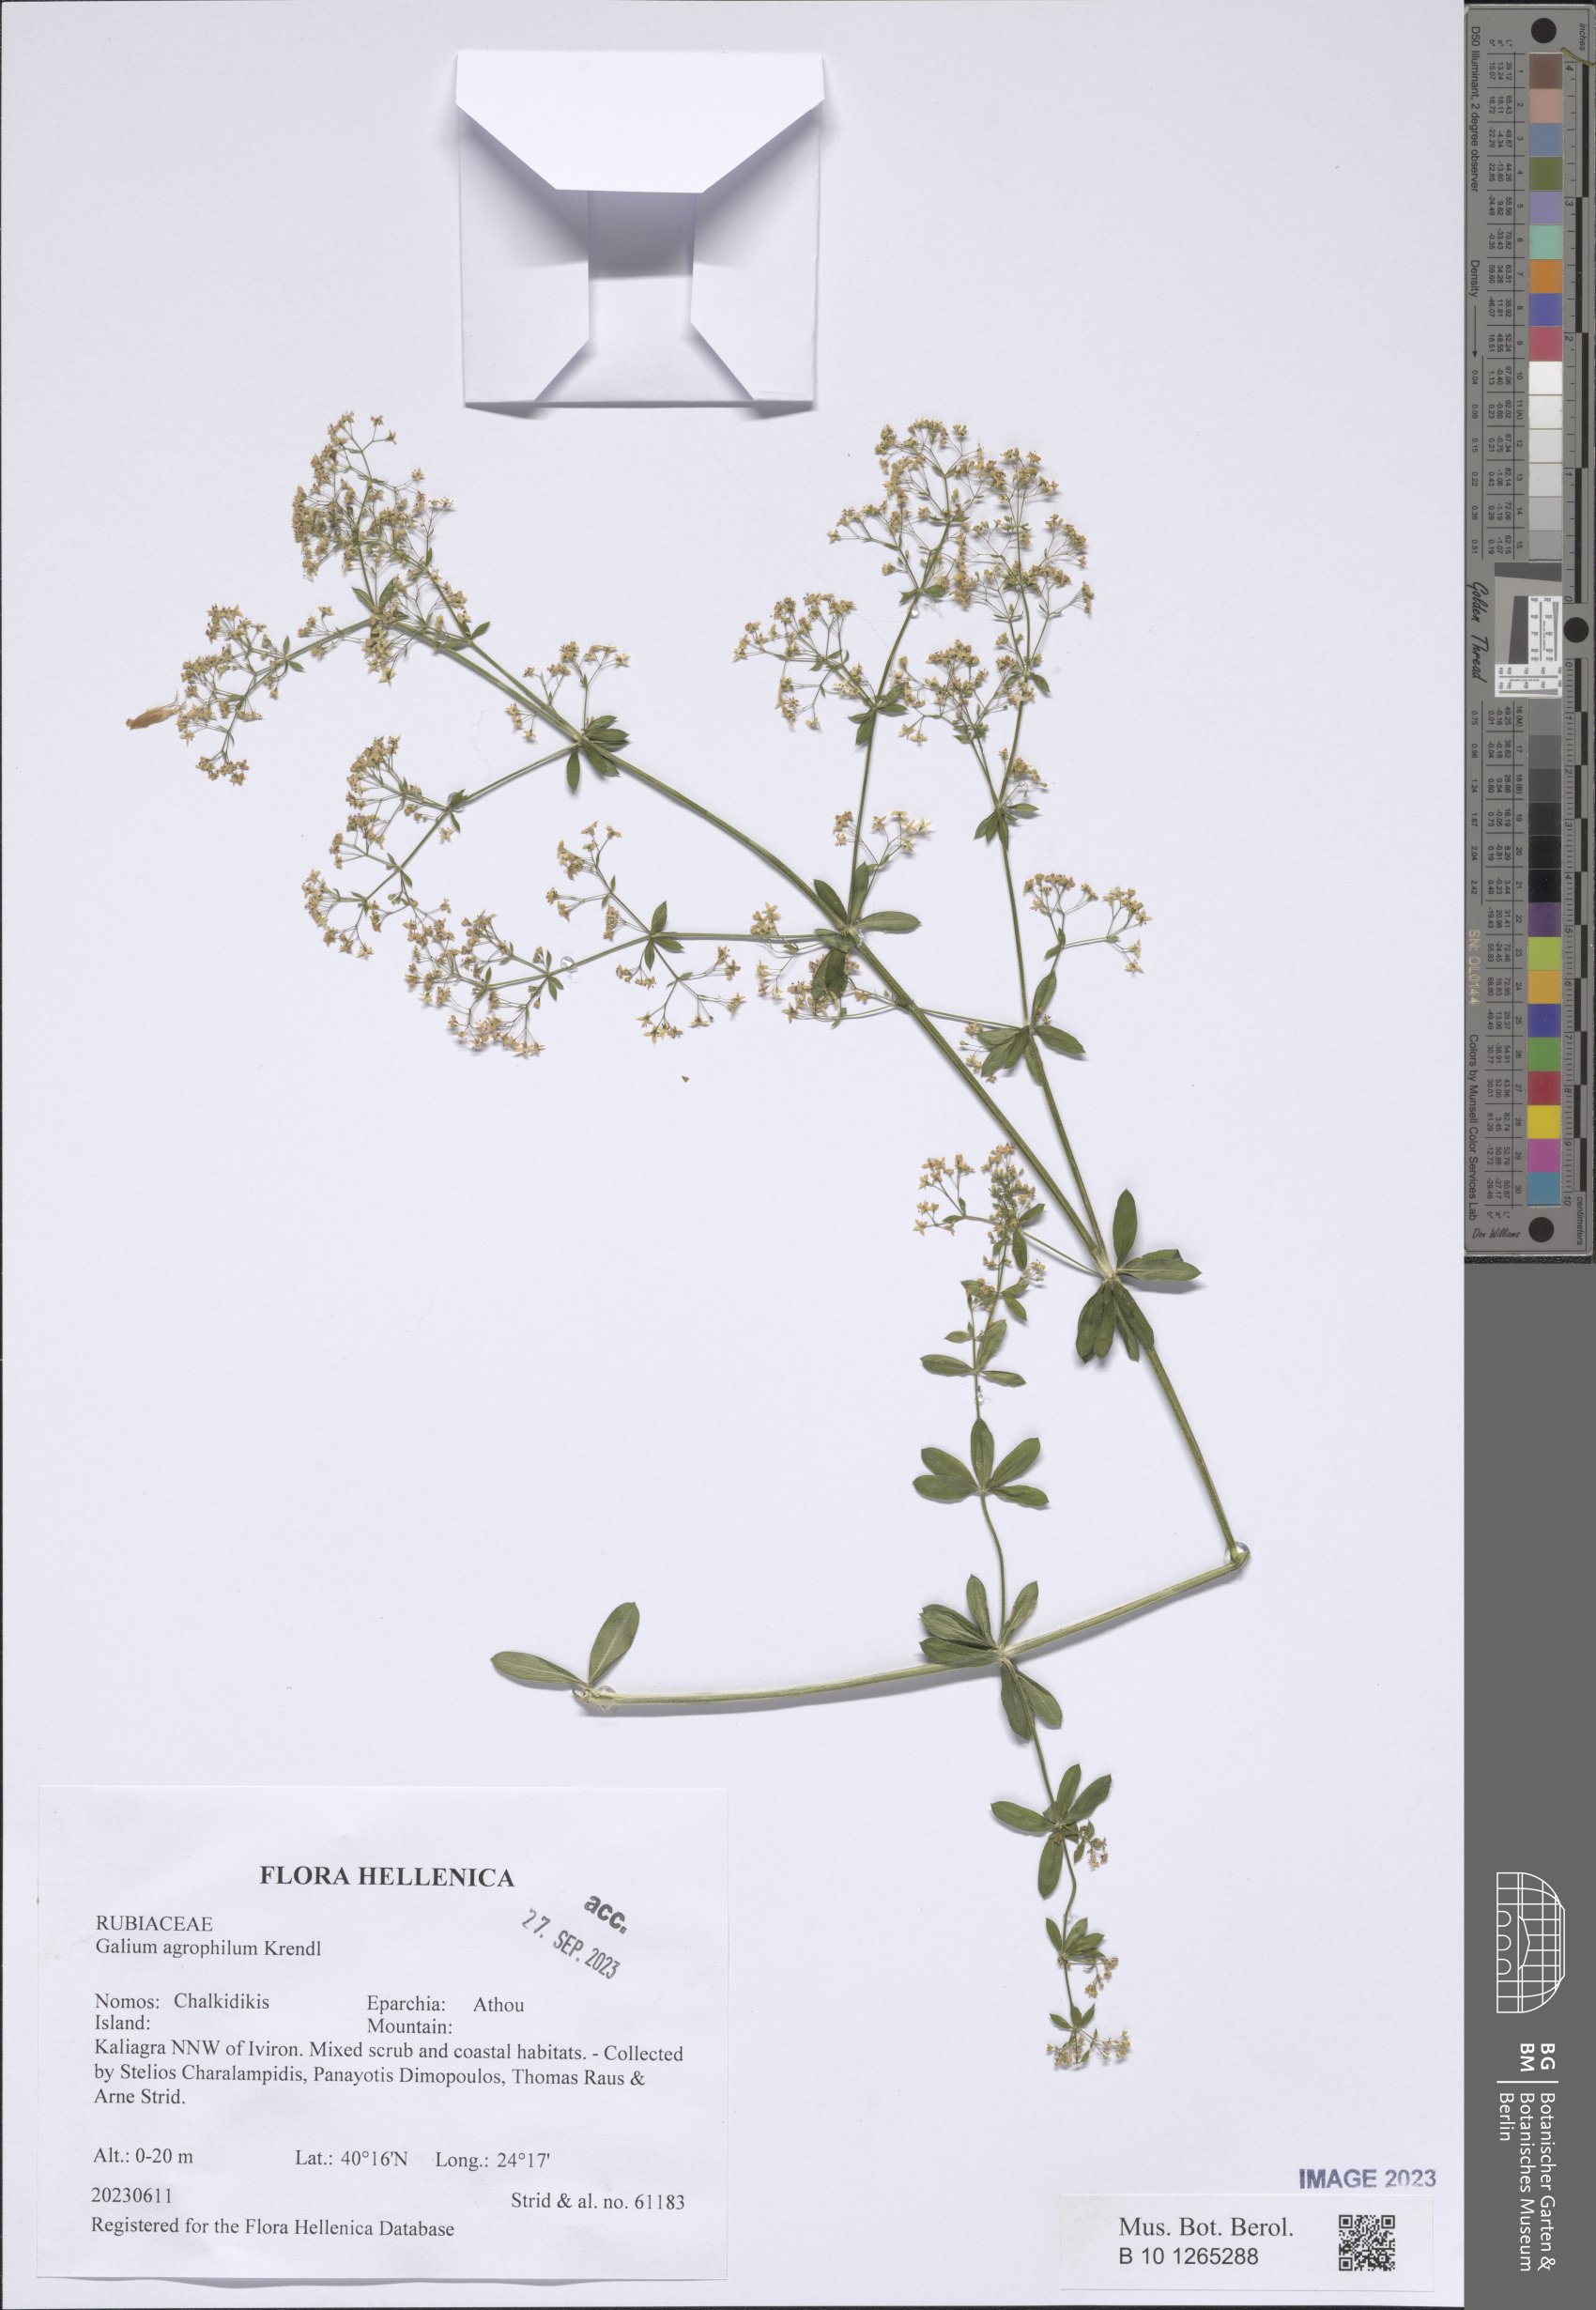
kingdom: Plantae
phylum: Tracheophyta
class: Magnoliopsida
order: Gentianales
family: Rubiaceae
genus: Galium
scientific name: Galium agrophilum
